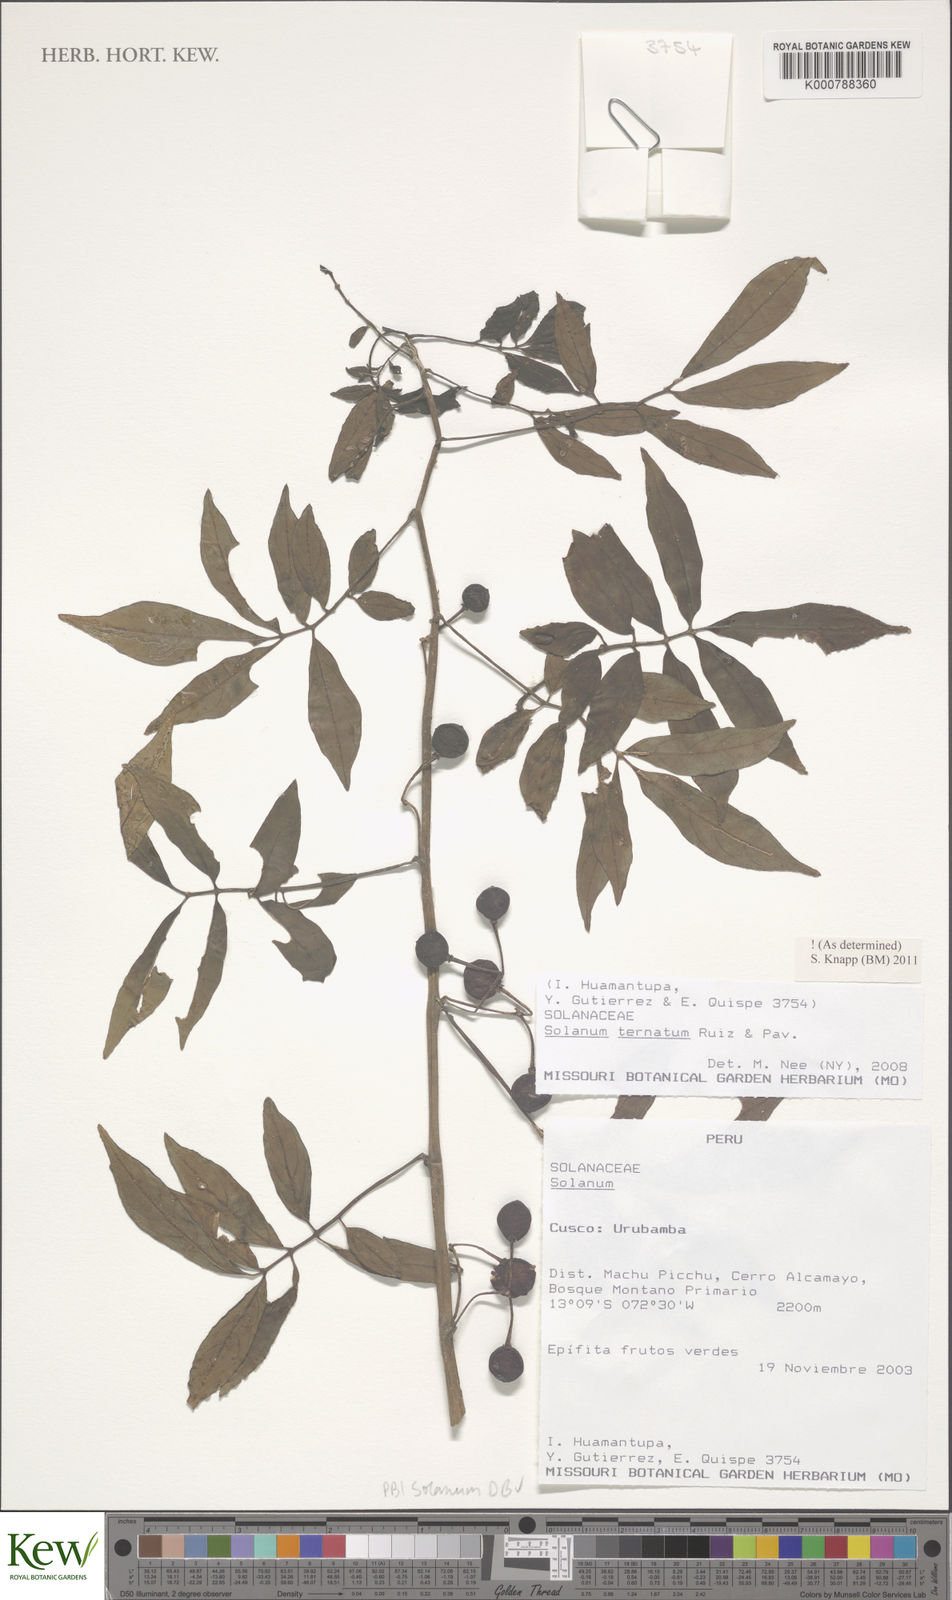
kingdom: Plantae
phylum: Tracheophyta
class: Magnoliopsida
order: Solanales
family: Solanaceae
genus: Solanum
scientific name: Solanum ternatum
